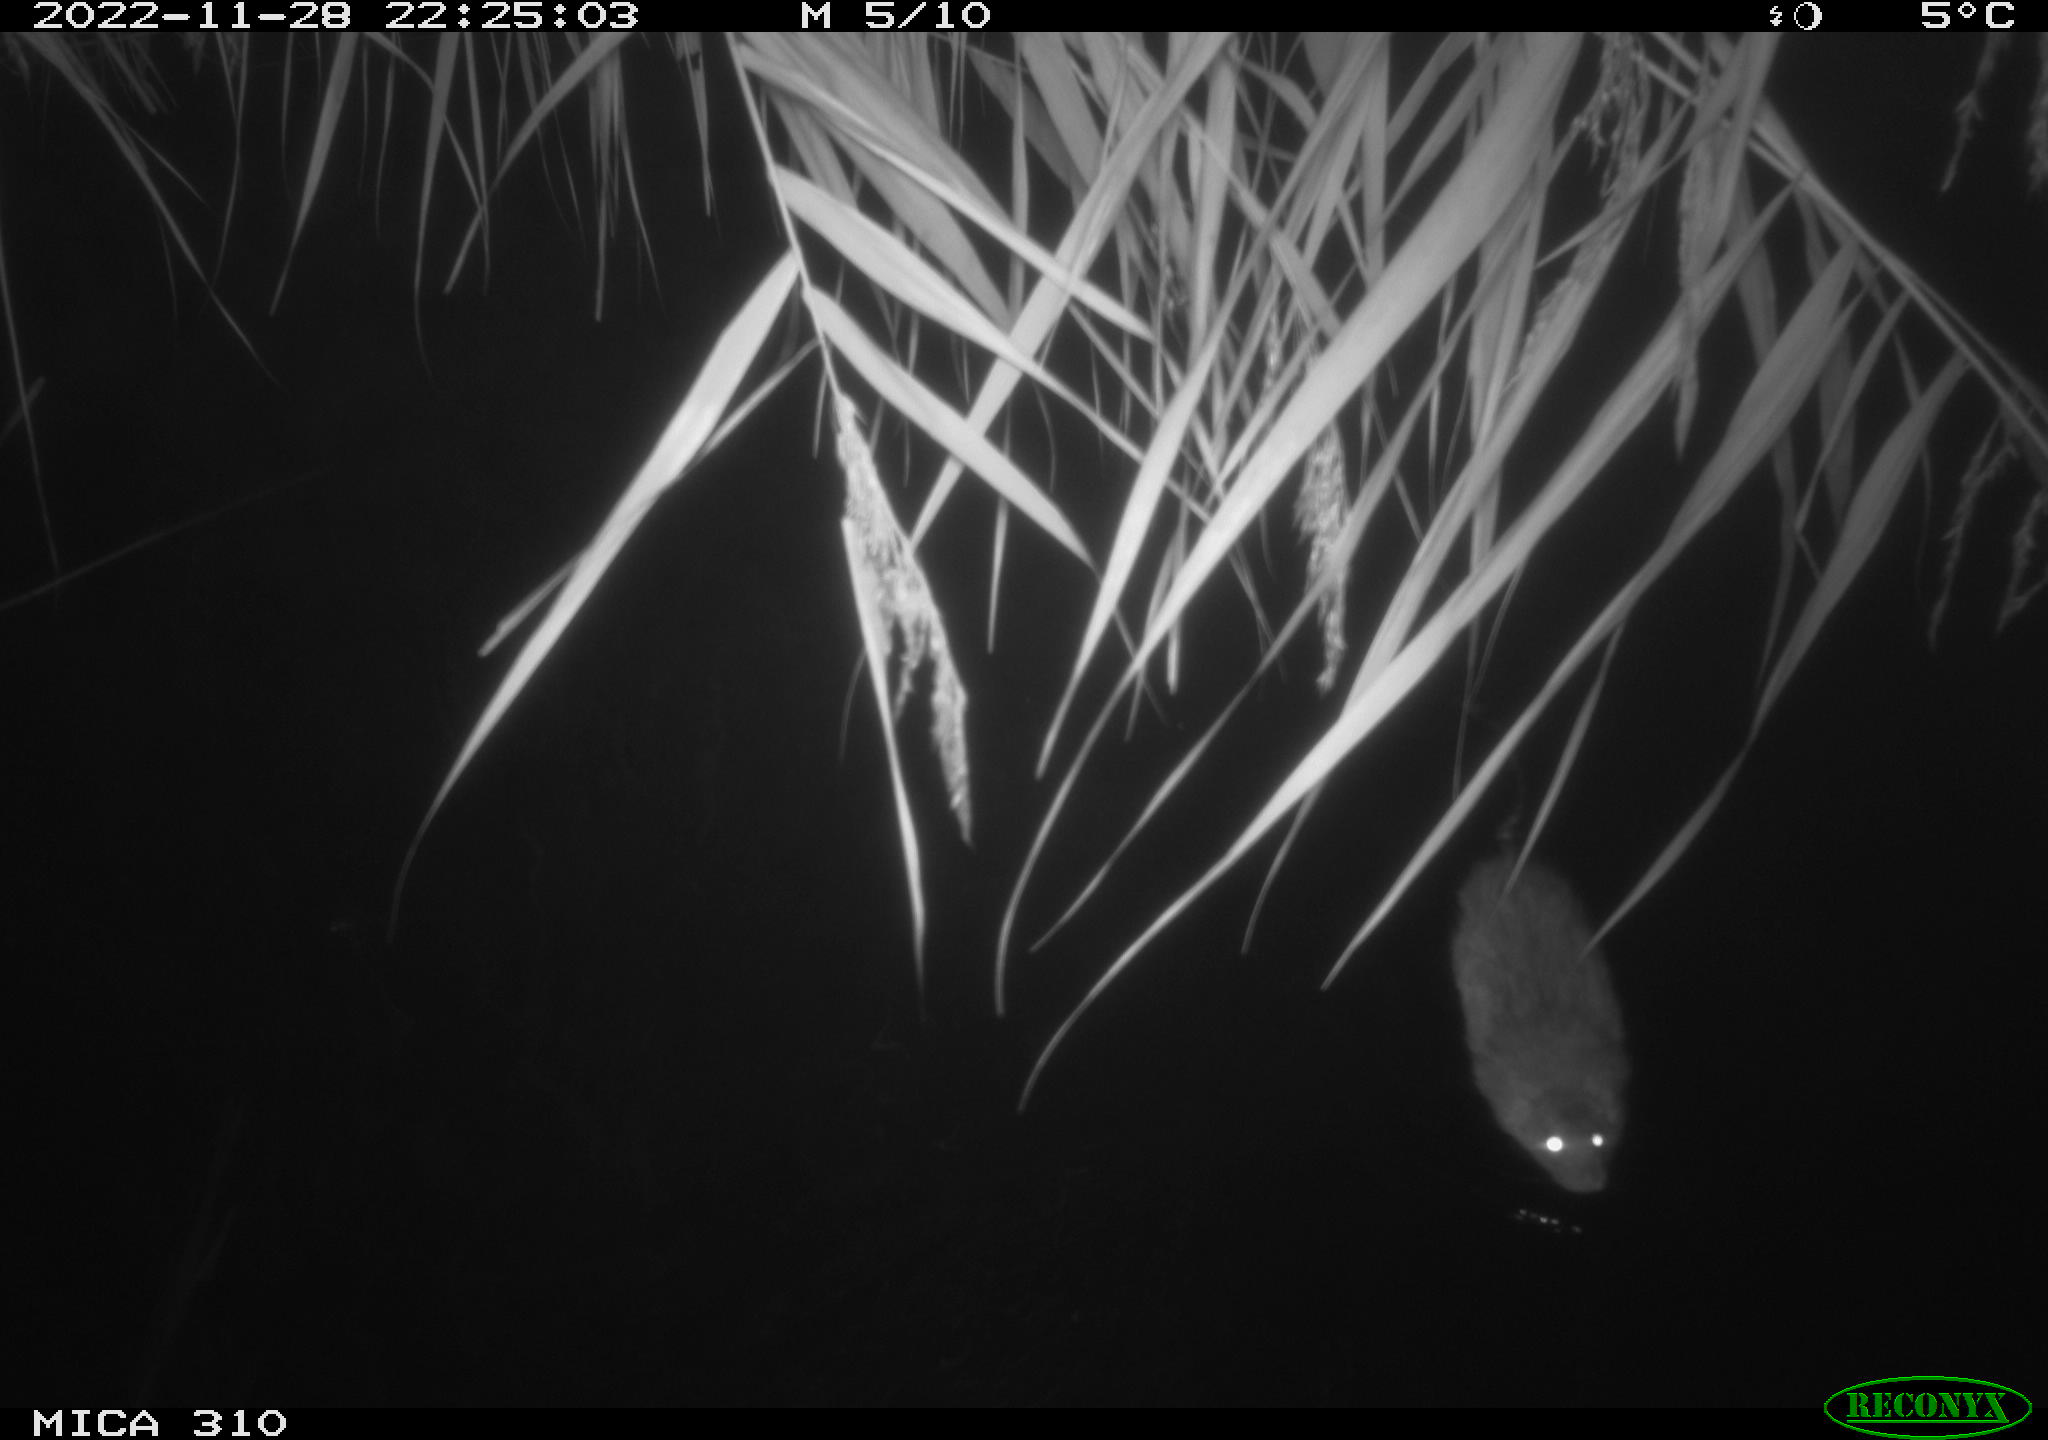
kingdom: Animalia
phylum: Chordata
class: Mammalia
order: Rodentia
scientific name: Rodentia
